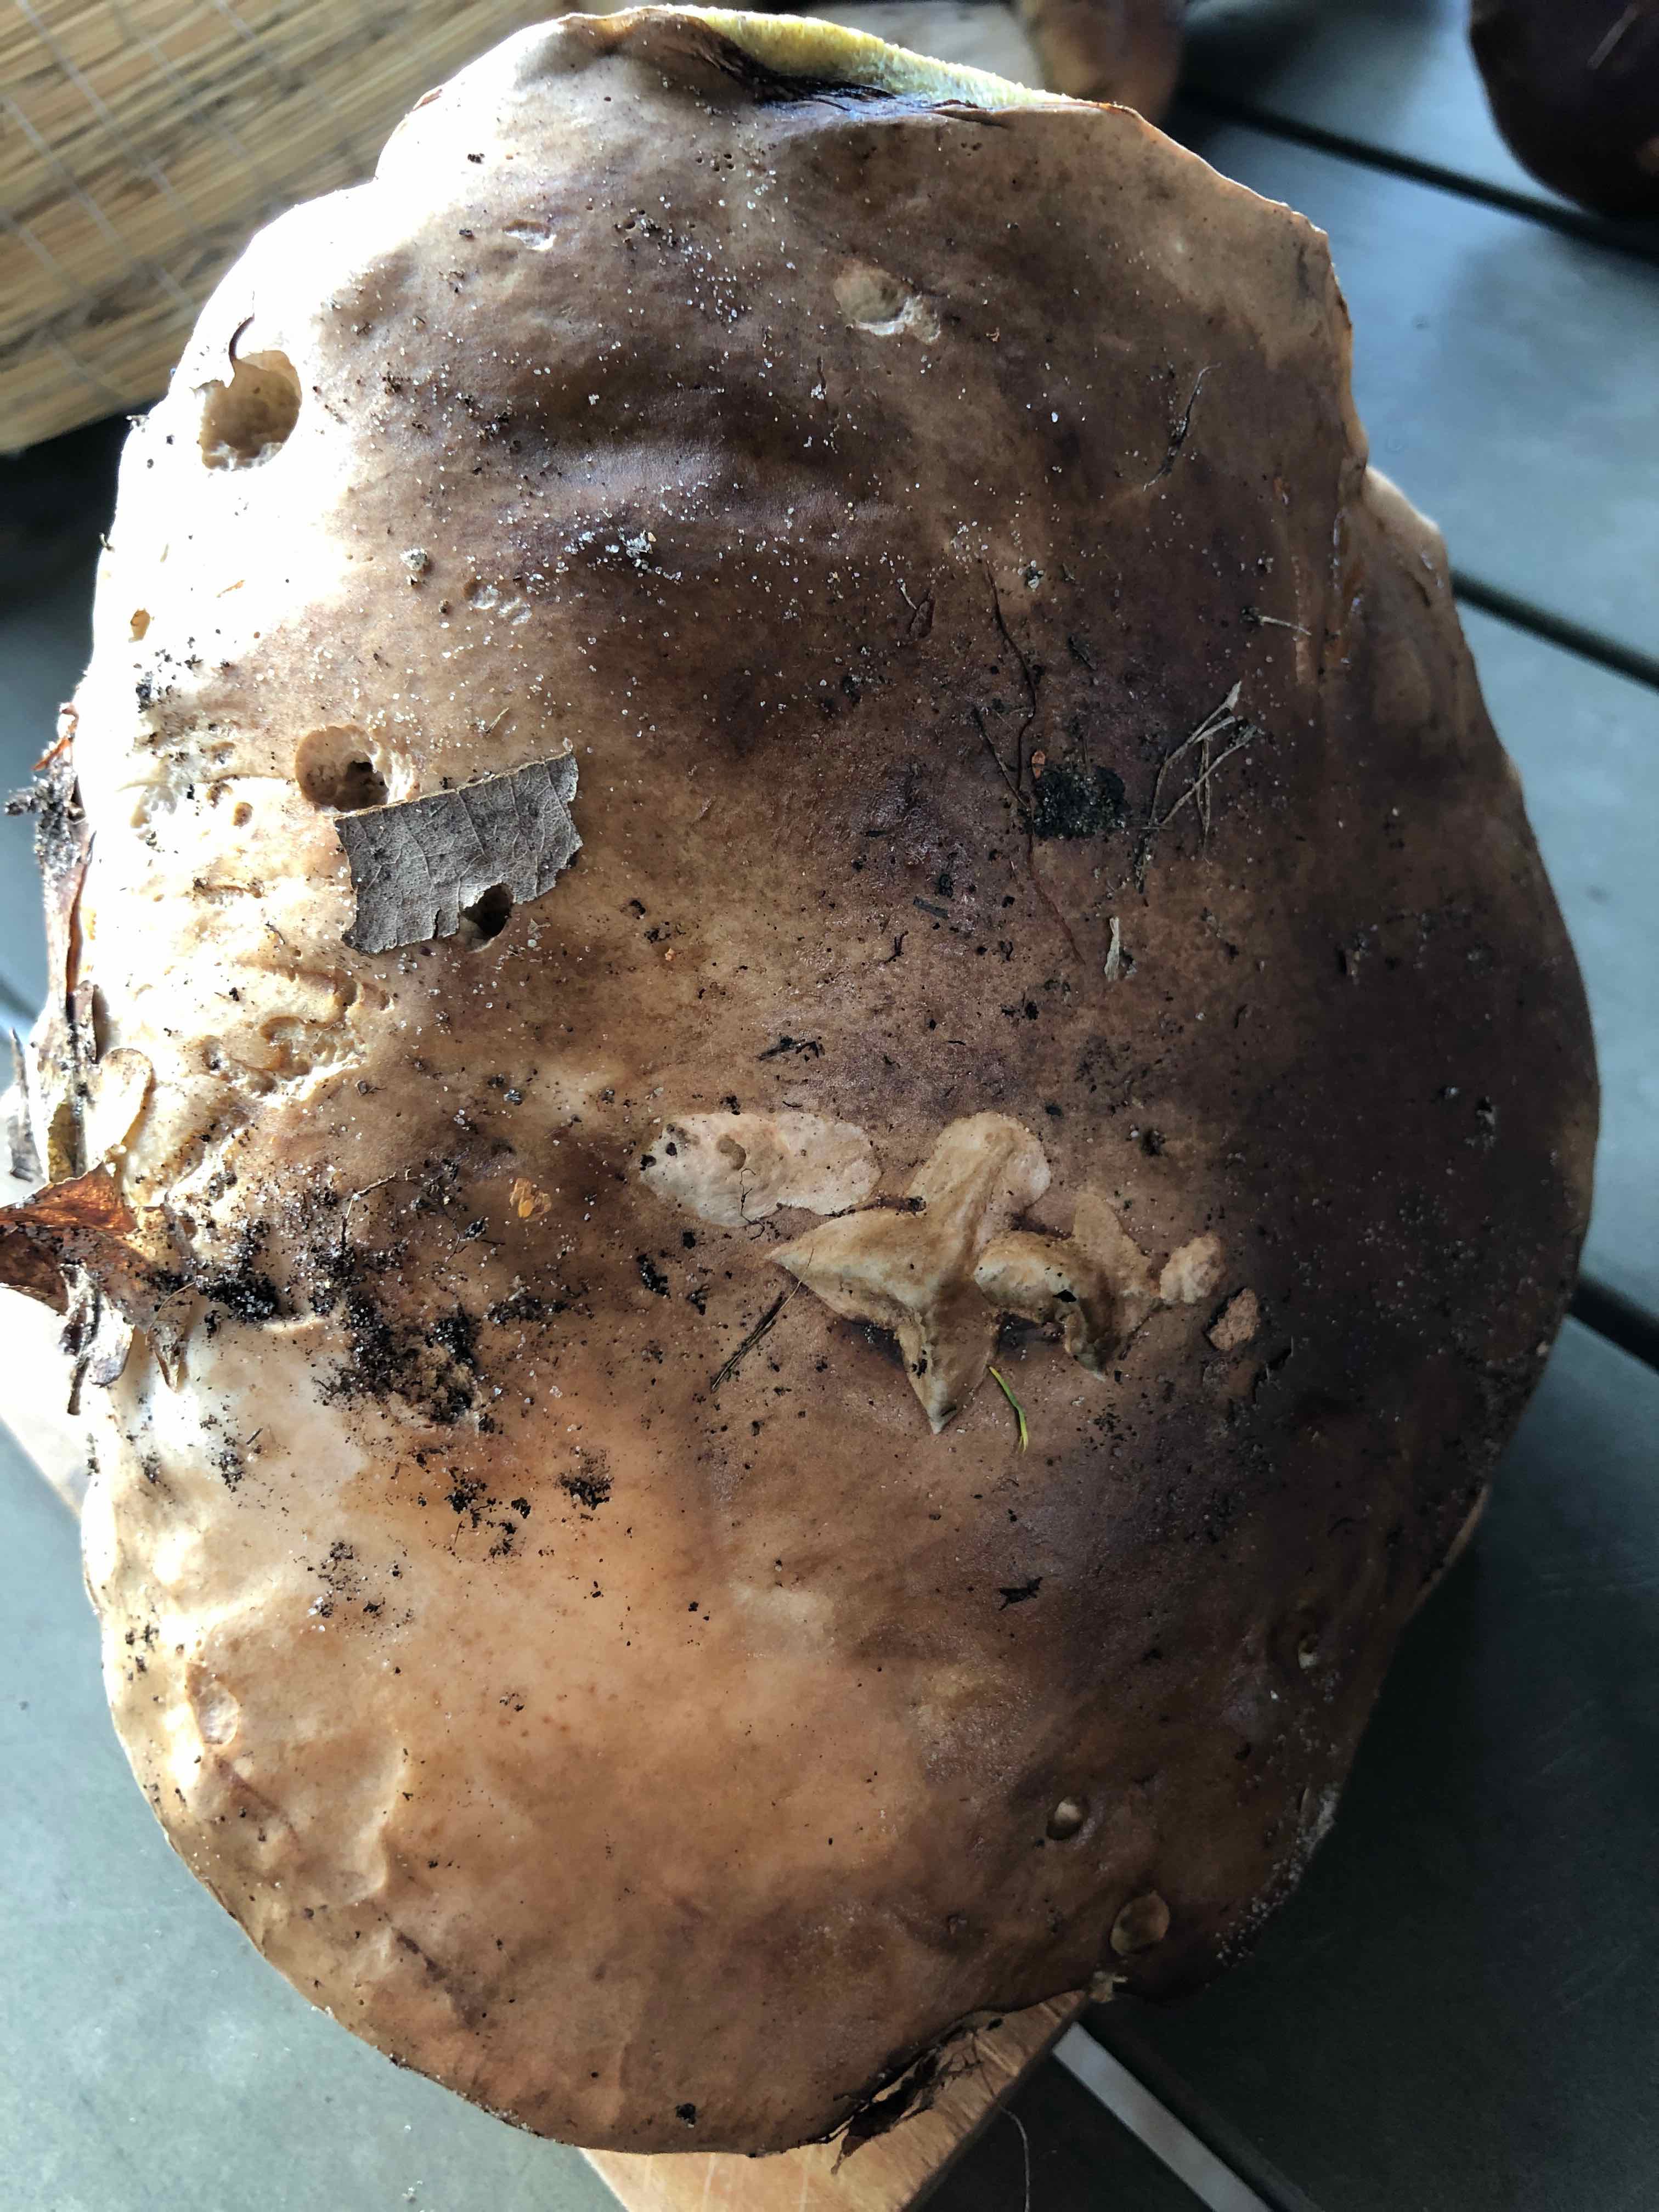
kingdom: Fungi
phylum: Basidiomycota
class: Agaricomycetes
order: Boletales
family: Boletaceae
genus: Boletus
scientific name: Boletus edulis
